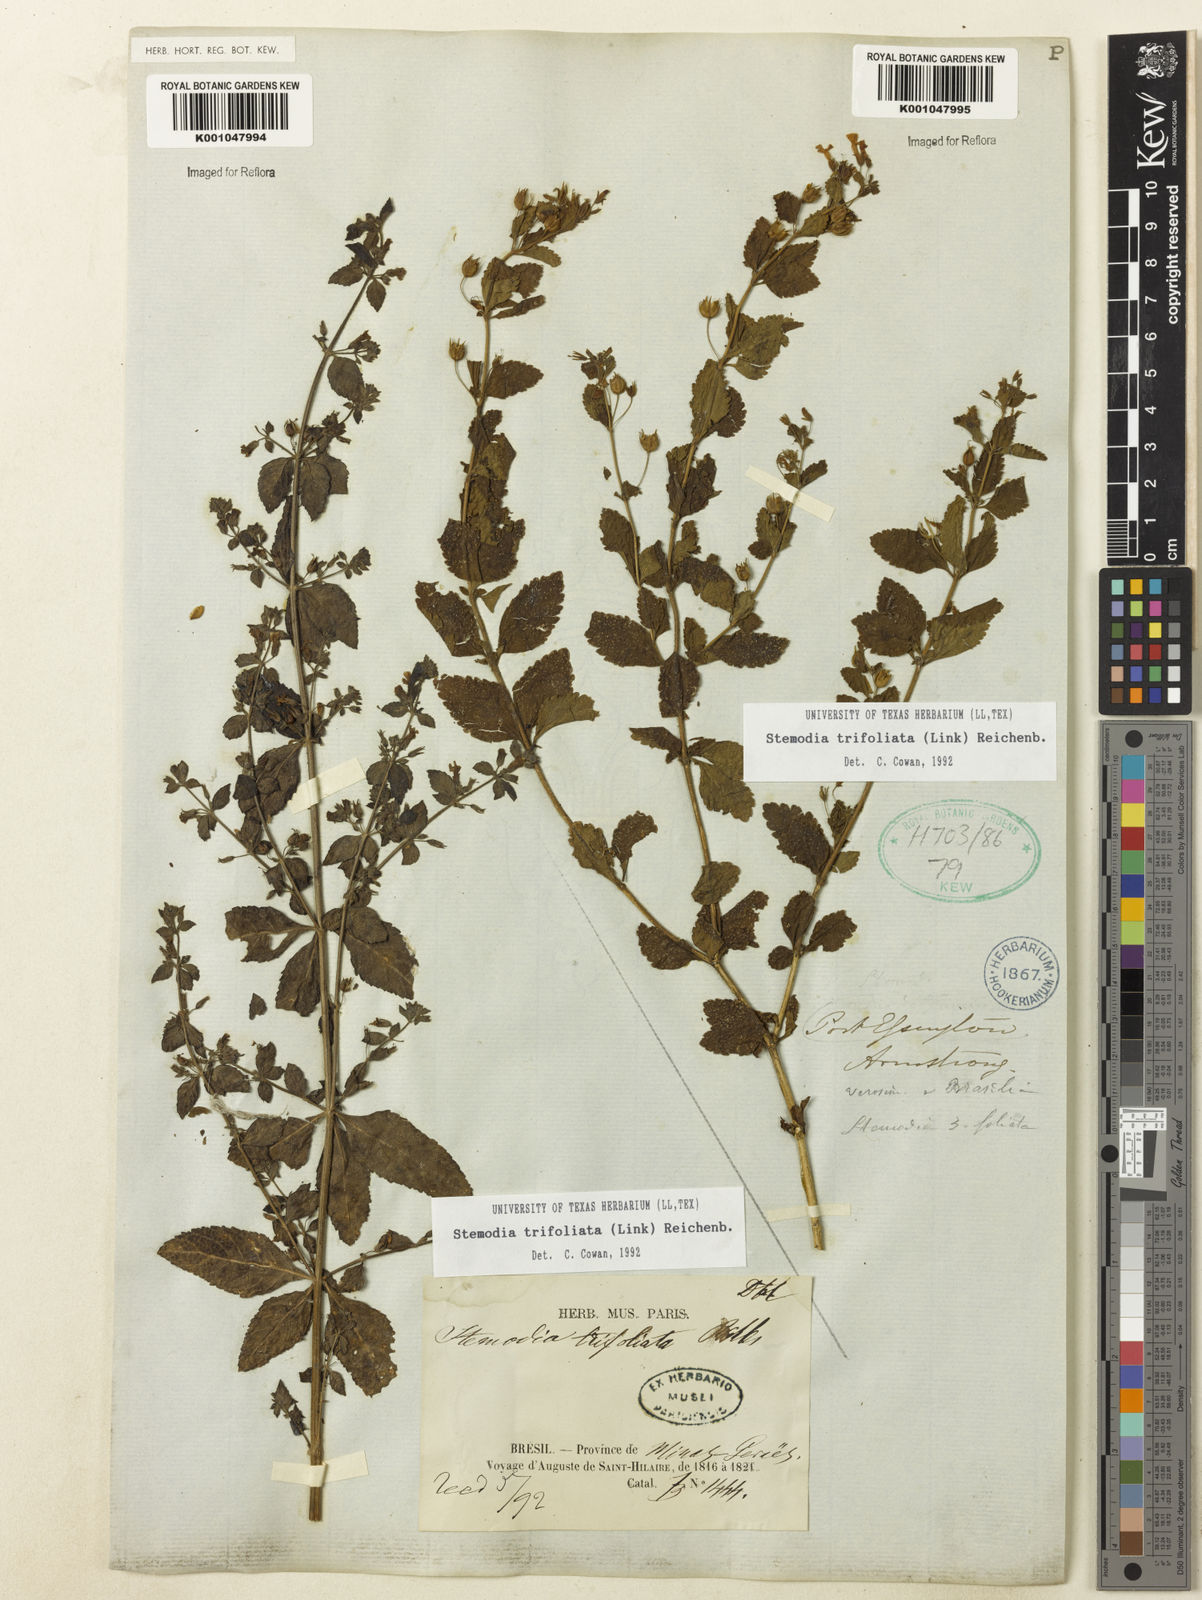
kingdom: Plantae
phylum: Tracheophyta
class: Magnoliopsida
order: Lamiales
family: Plantaginaceae
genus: Stemodia
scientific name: Stemodia trifoliata
